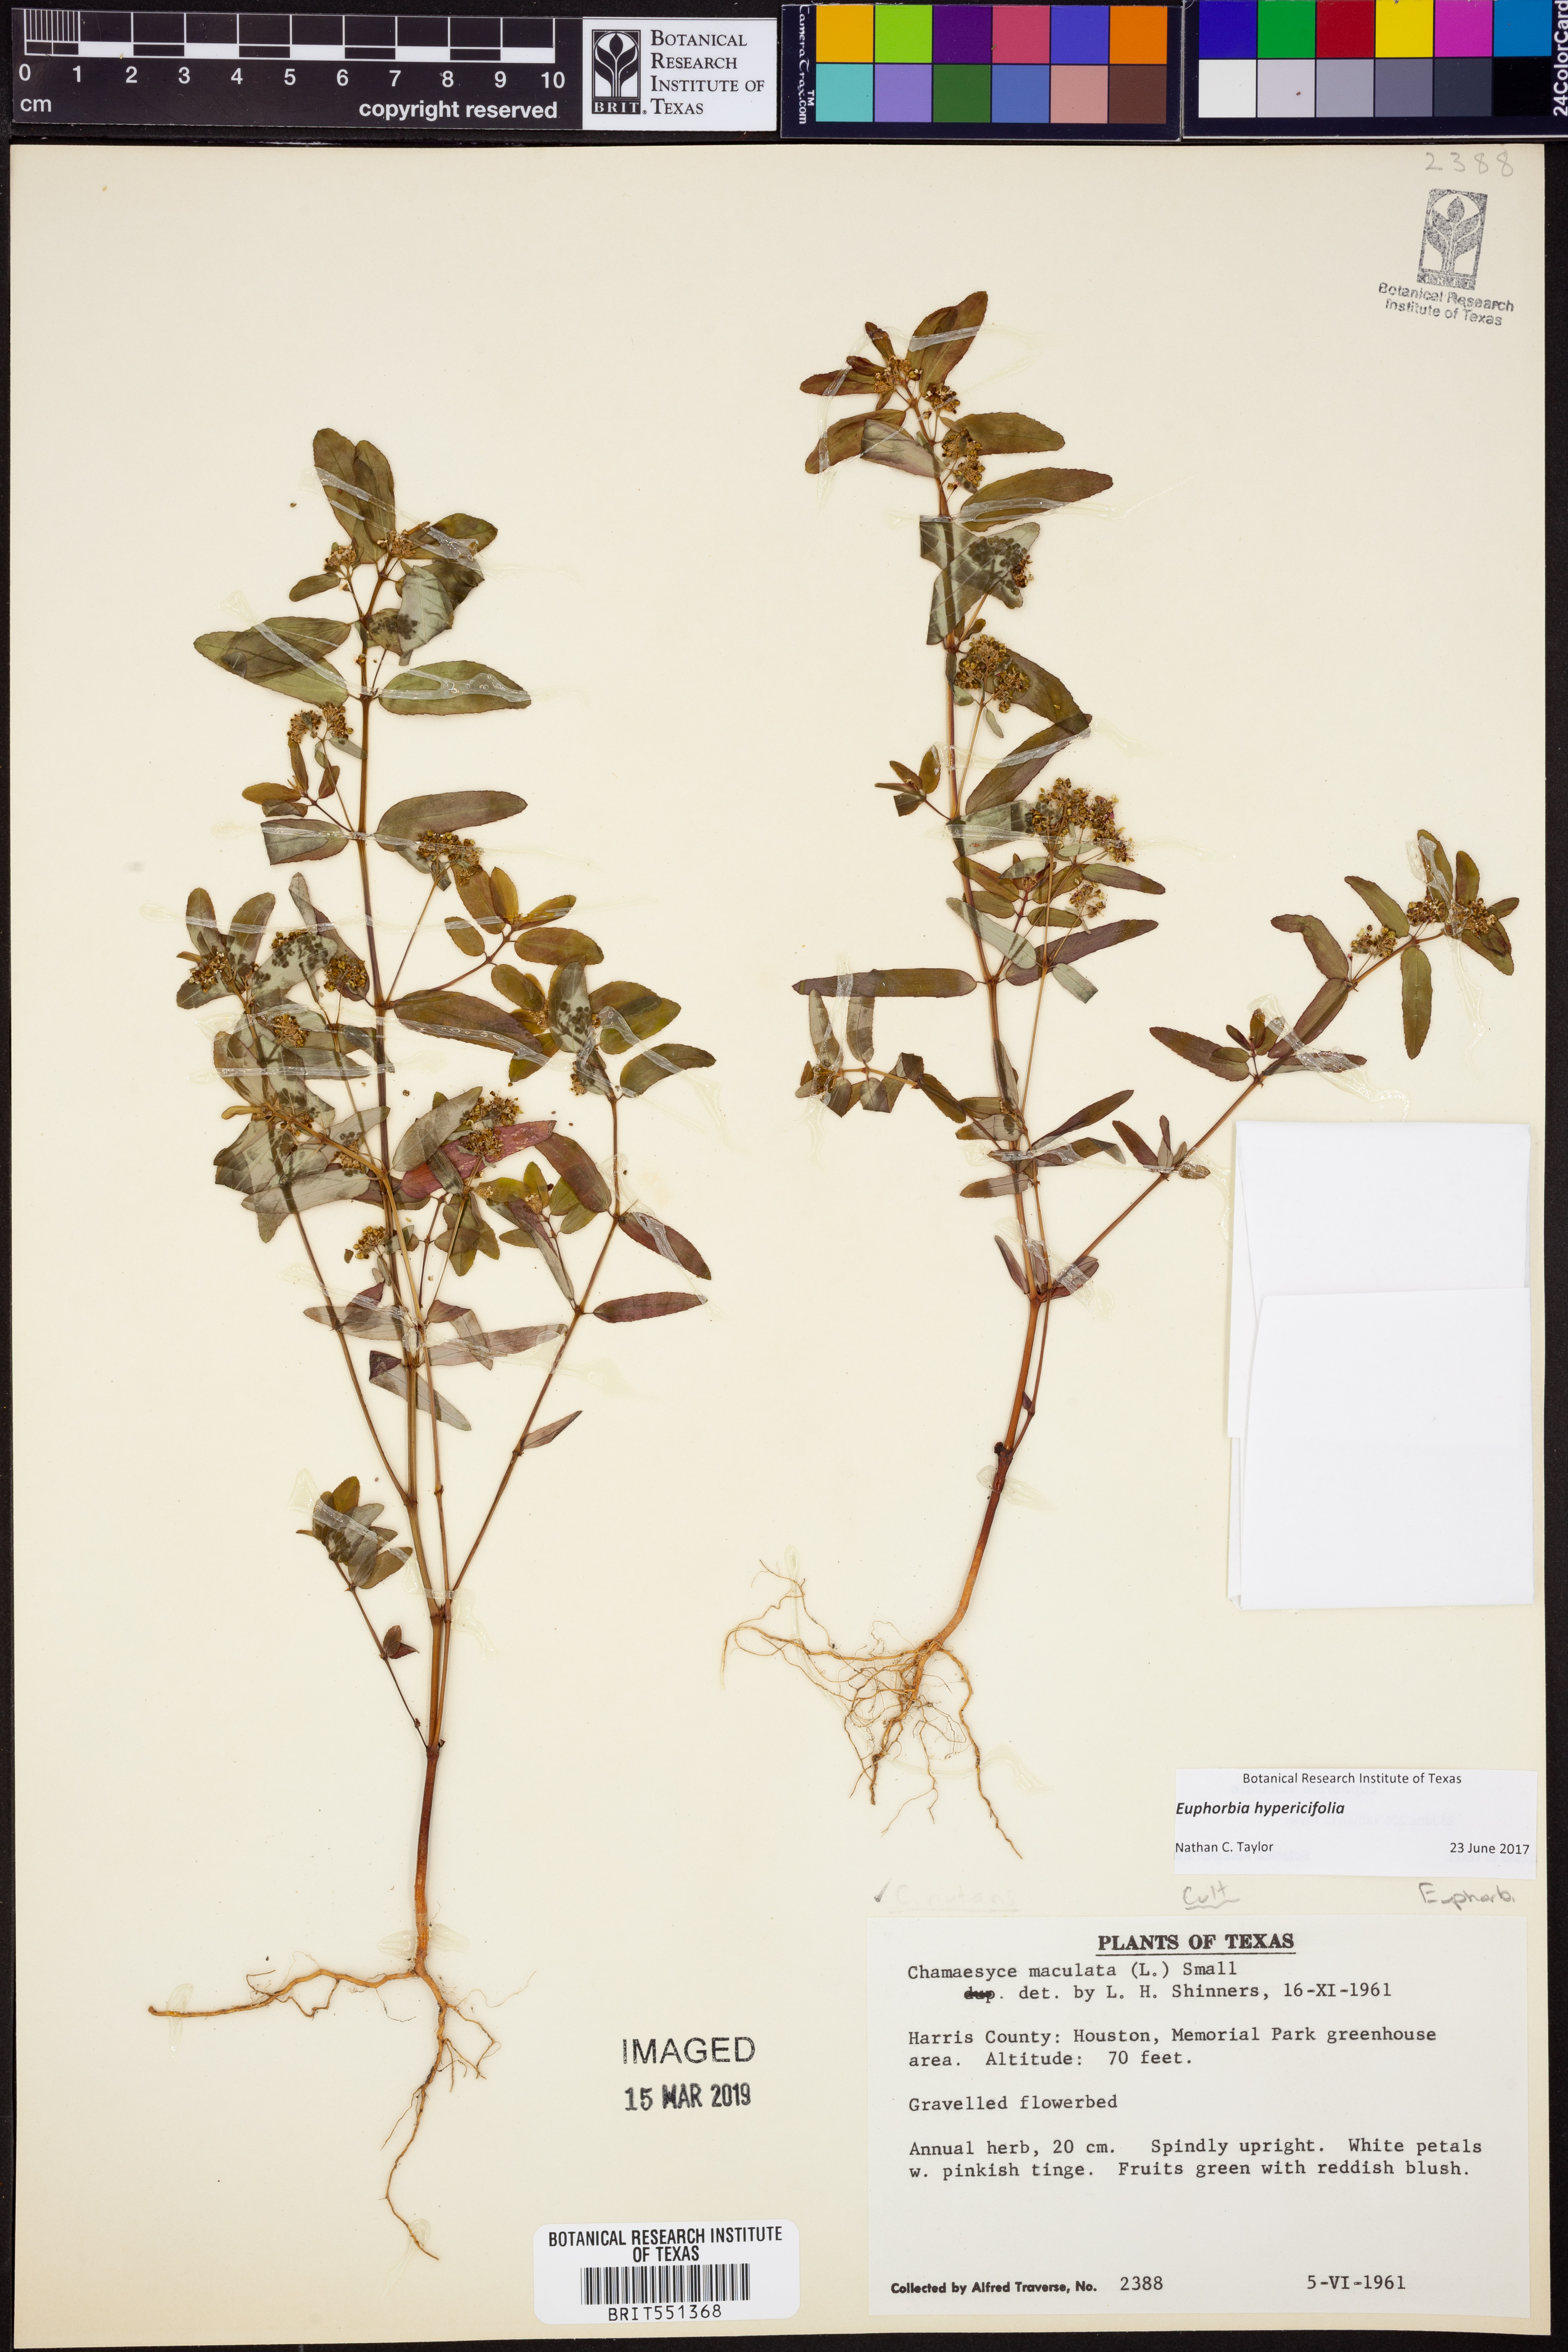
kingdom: Plantae
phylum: Tracheophyta
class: Magnoliopsida
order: Malpighiales
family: Euphorbiaceae
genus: Euphorbia
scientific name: Euphorbia hypericifolia
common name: Graceful sandmat
